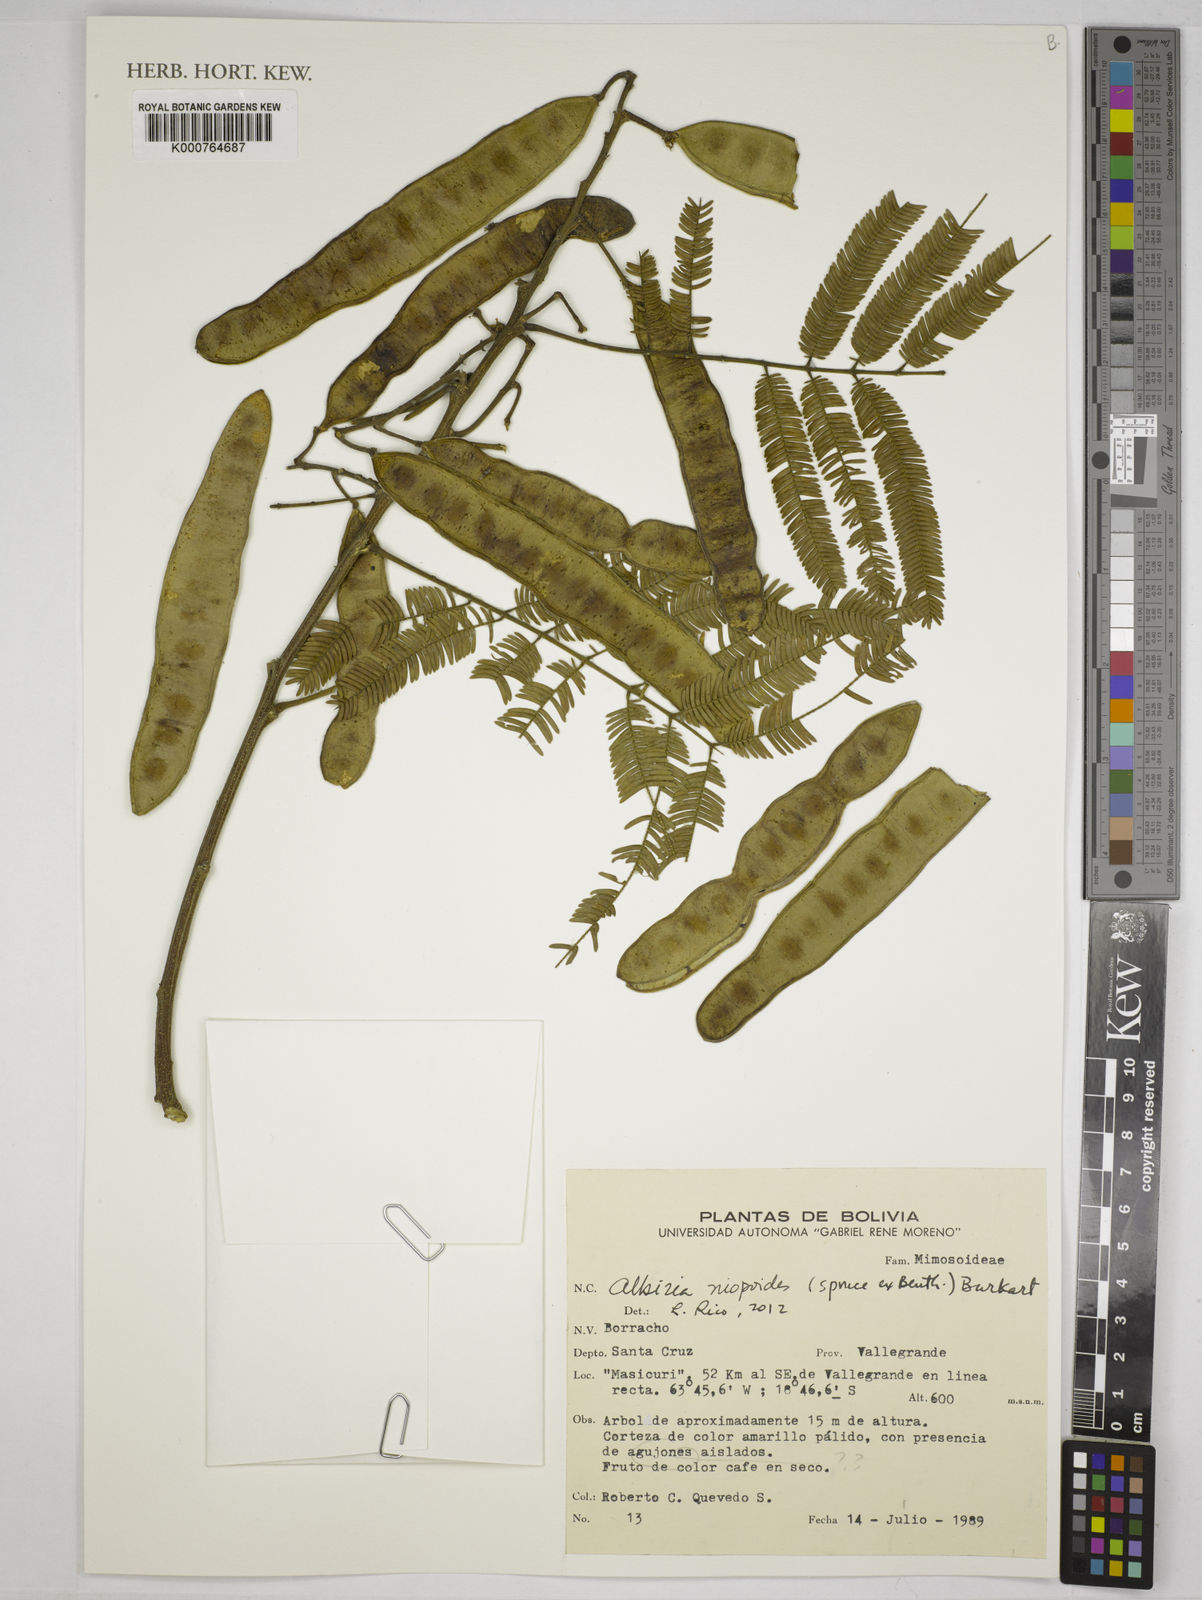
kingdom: Plantae
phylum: Tracheophyta
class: Magnoliopsida
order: Fabales
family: Fabaceae
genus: Albizia
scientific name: Albizia niopoides
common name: Silk tree
